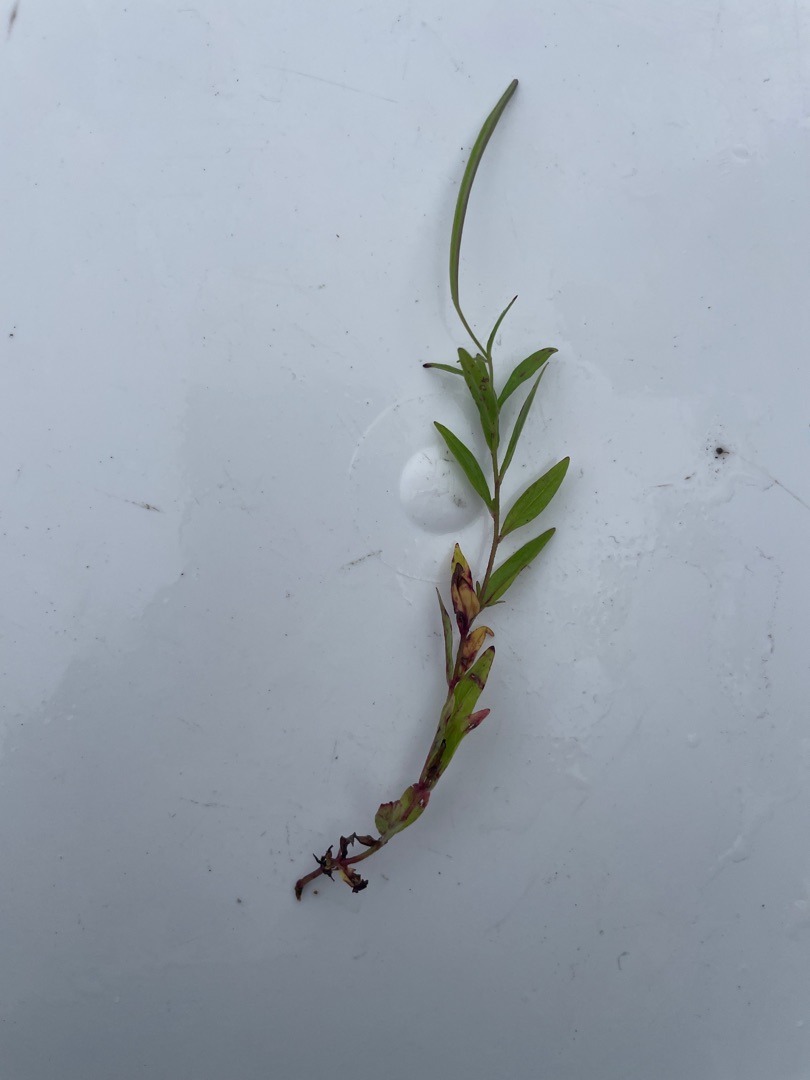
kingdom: Plantae
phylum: Tracheophyta
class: Magnoliopsida
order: Myrtales
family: Onagraceae
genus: Epilobium
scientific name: Epilobium
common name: Dueurtslægten
